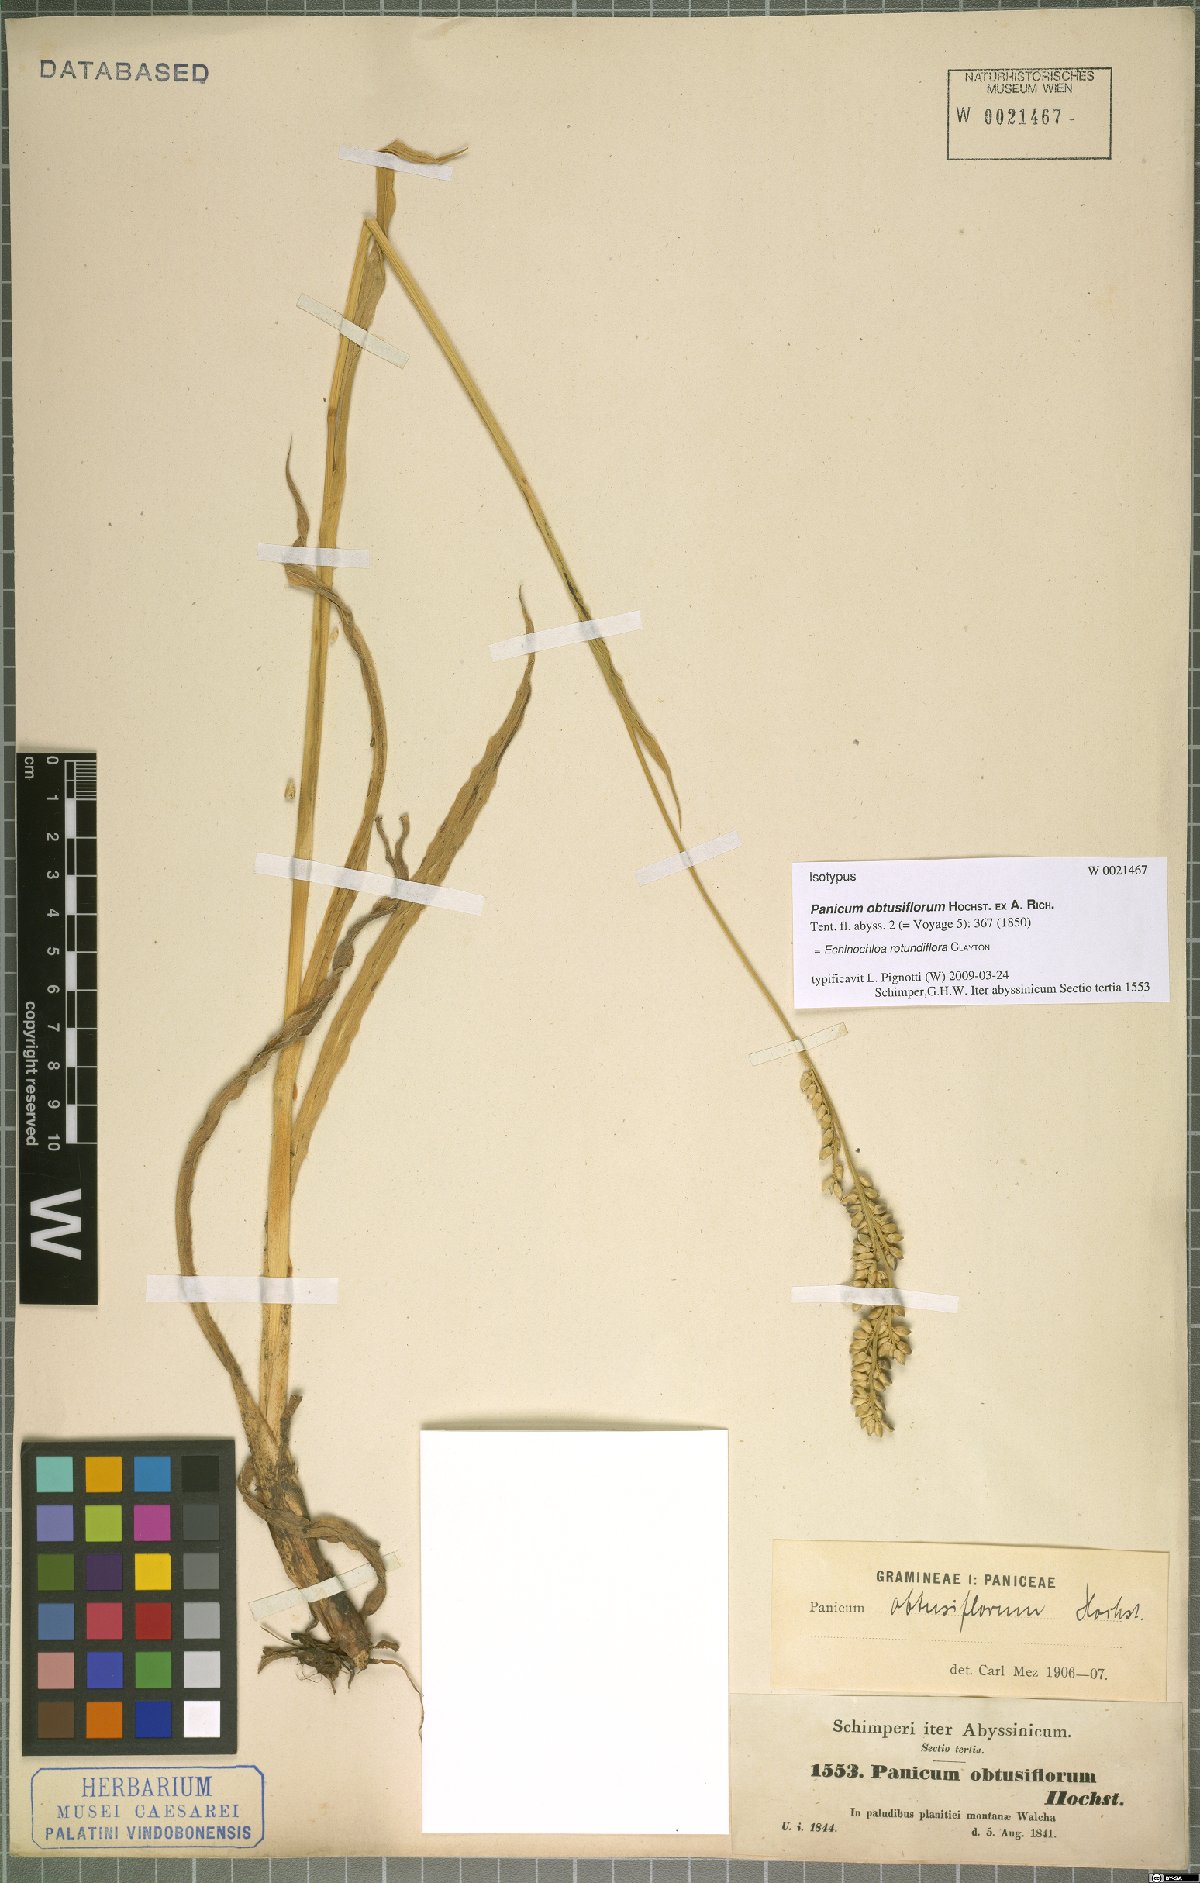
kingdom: Plantae
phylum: Tracheophyta
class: Liliopsida
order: Poales
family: Poaceae
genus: Echinochloa
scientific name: Echinochloa rotundiflora
